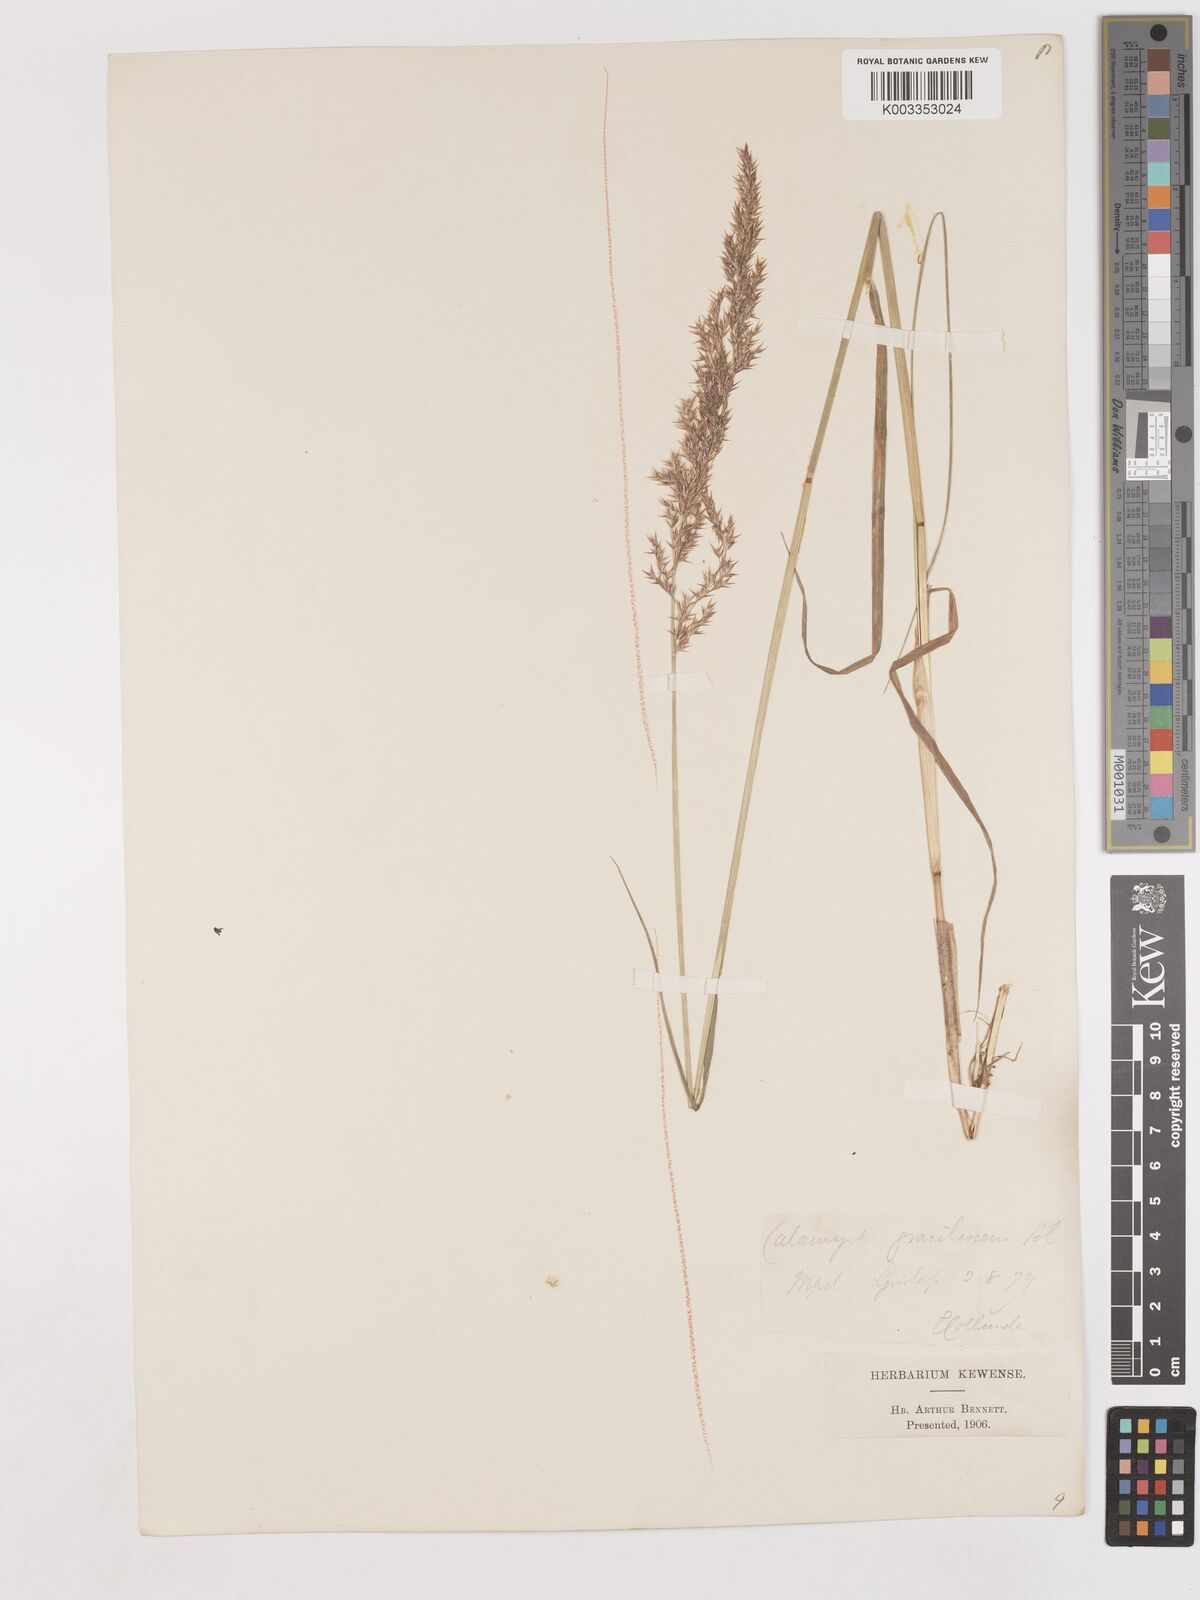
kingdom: Plantae
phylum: Tracheophyta
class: Liliopsida
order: Poales
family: Poaceae
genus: Calamagrostis
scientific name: Calamagrostis canescens
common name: Purple small-reed
